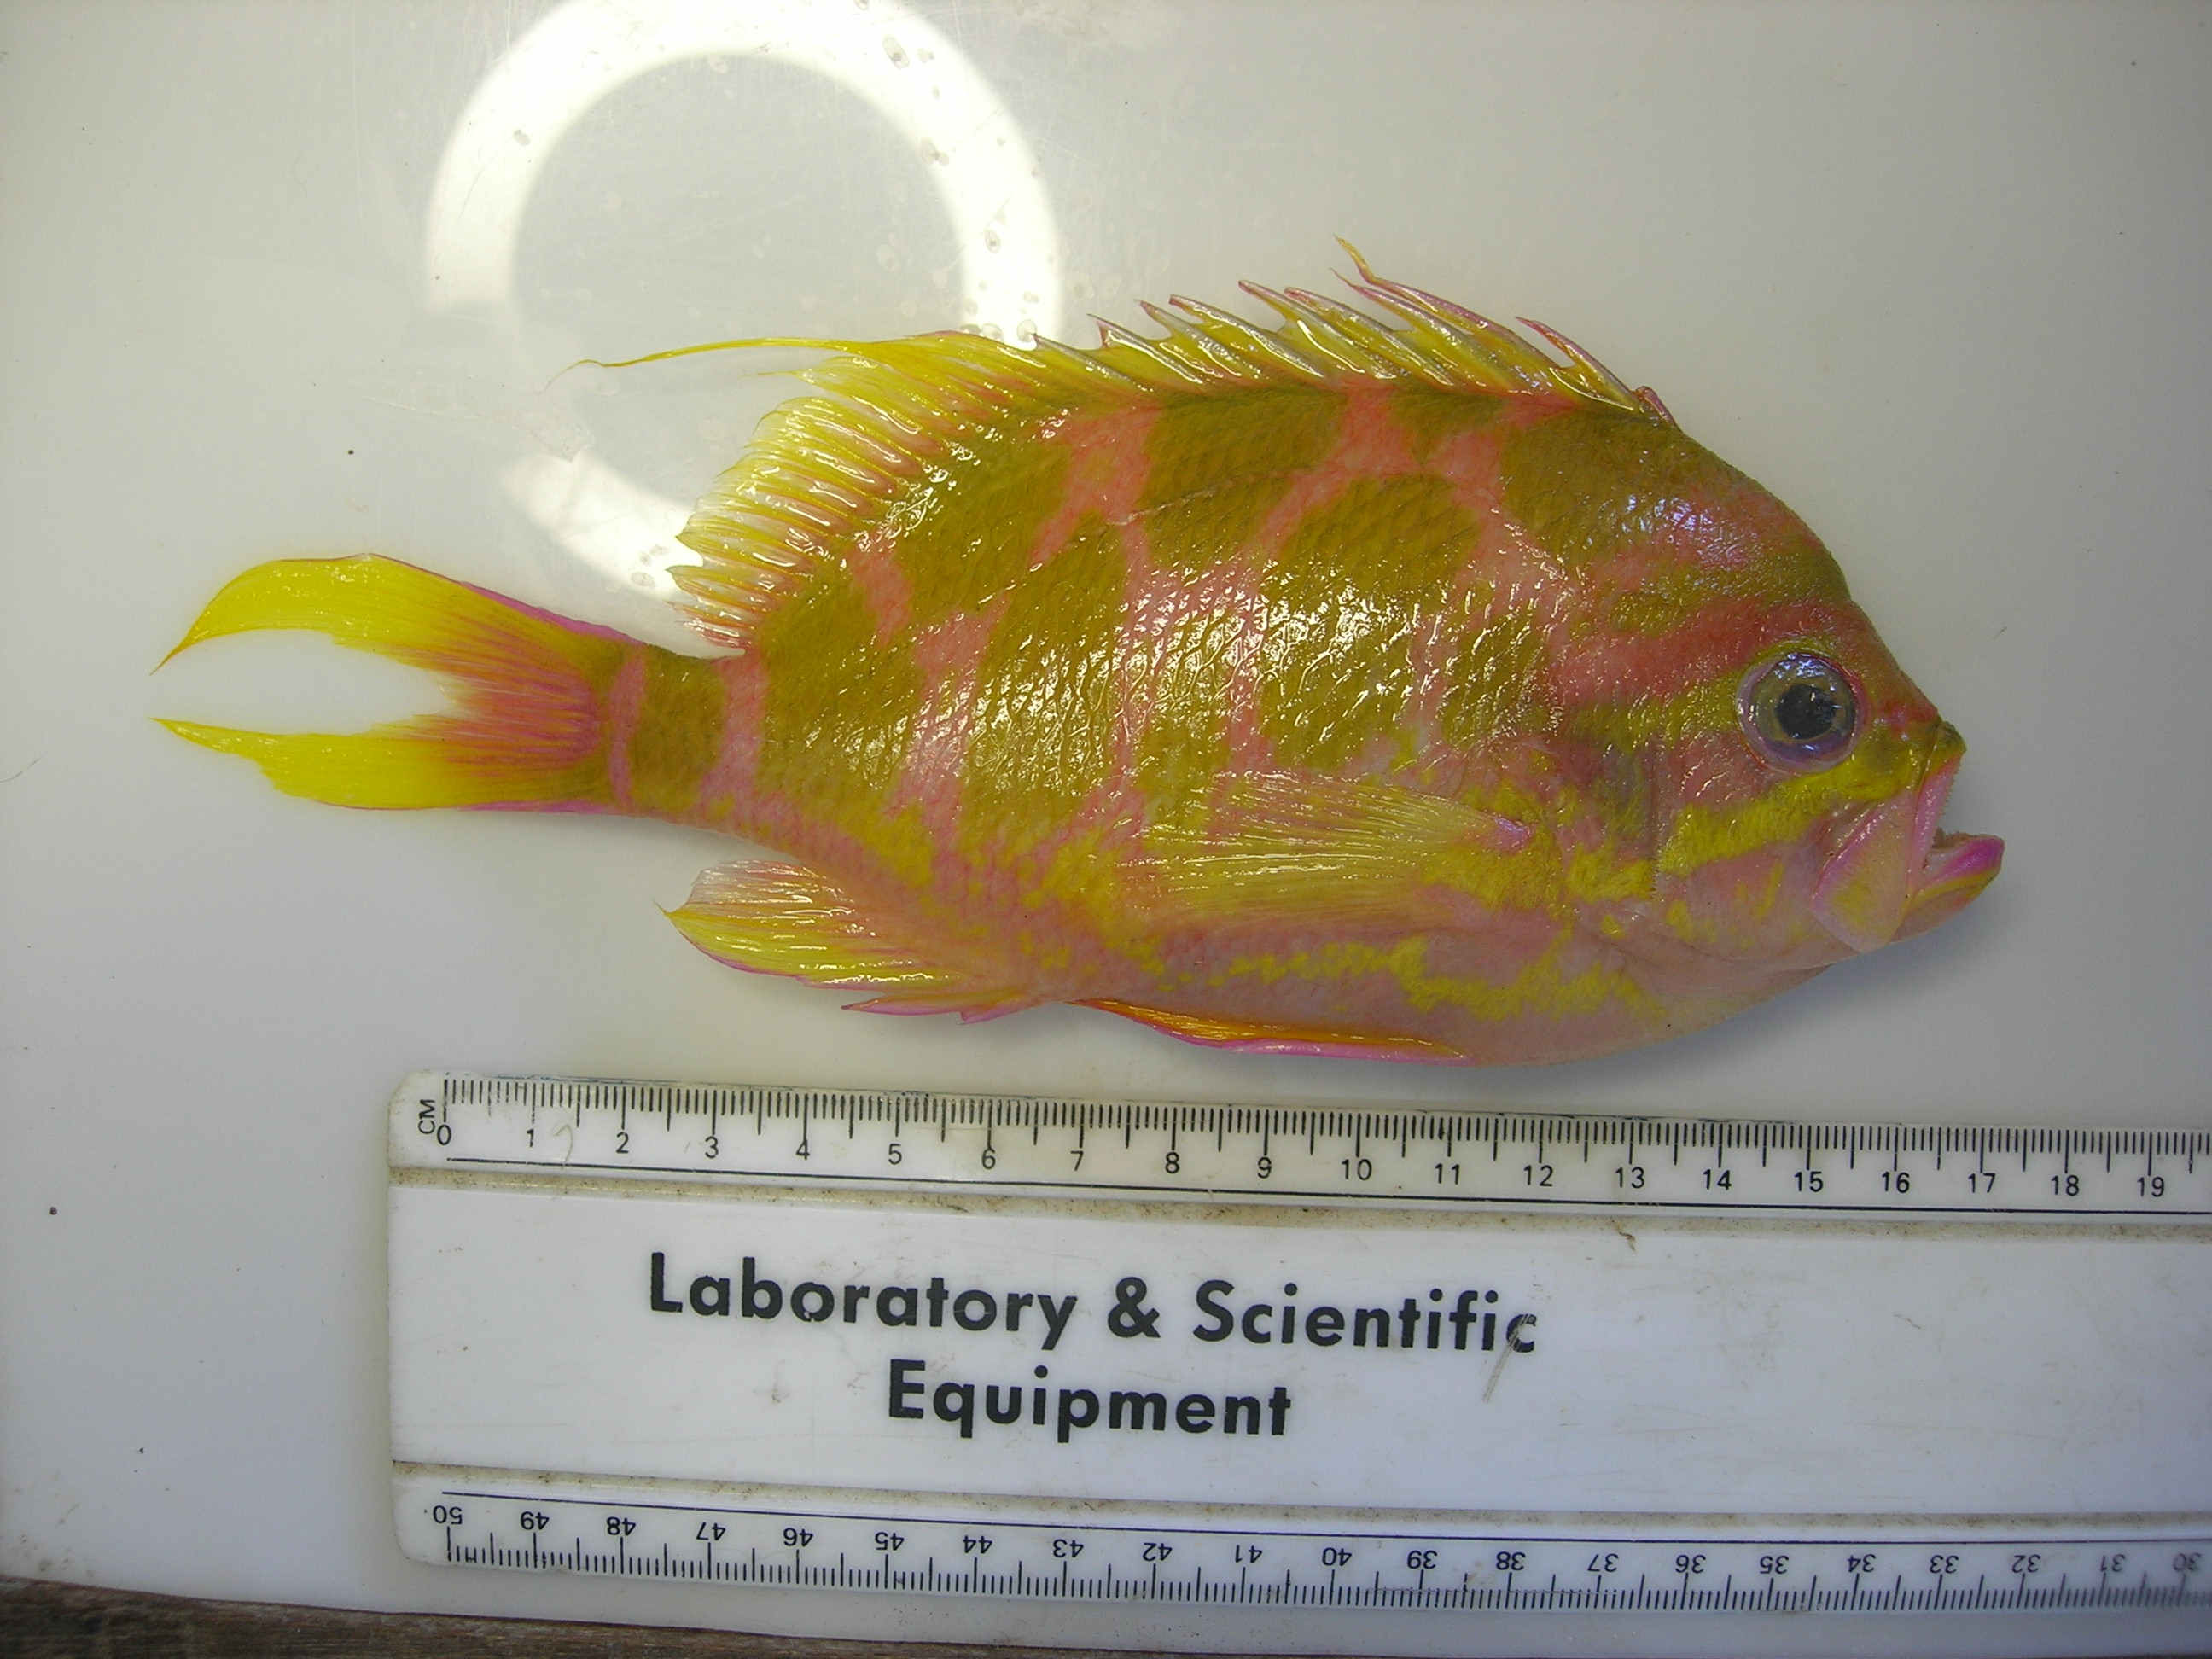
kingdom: Animalia
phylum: Chordata
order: Perciformes
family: Serranidae
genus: Holanthias
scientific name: Holanthias
